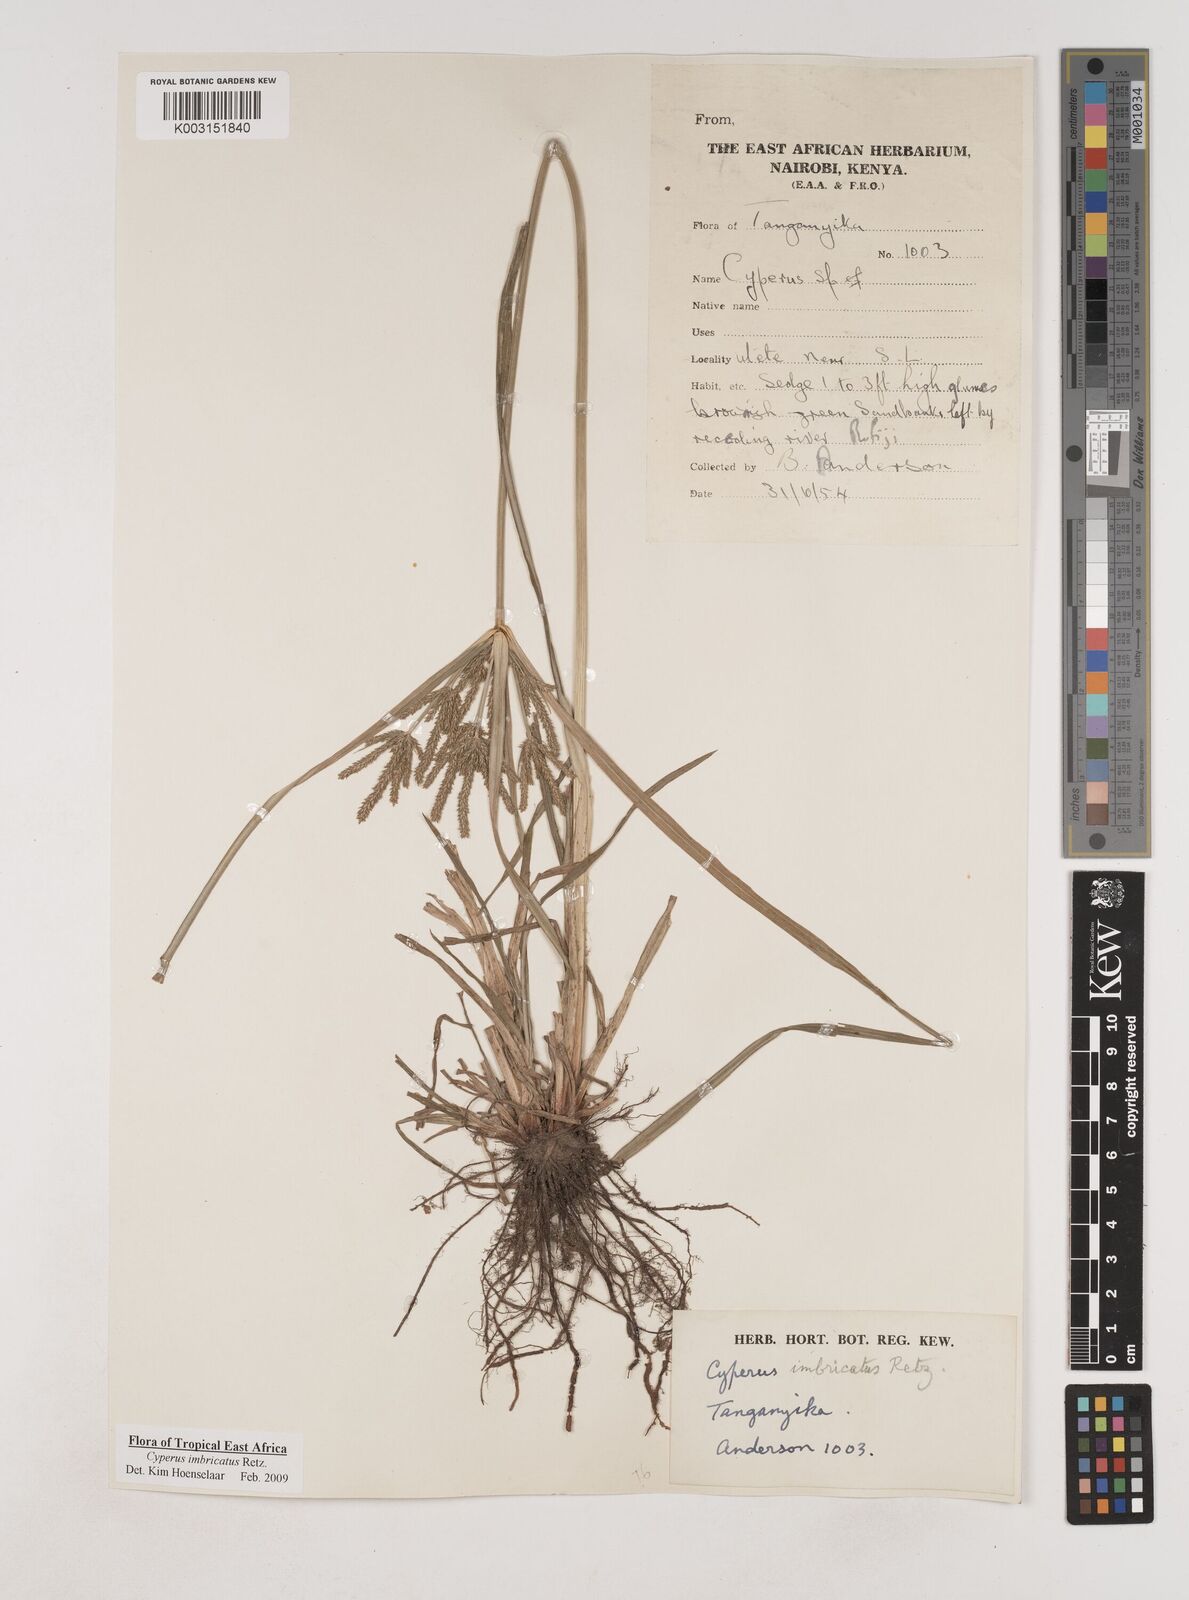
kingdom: Plantae
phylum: Tracheophyta
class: Liliopsida
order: Poales
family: Cyperaceae
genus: Cyperus
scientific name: Cyperus imbricatus
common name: Shingle flatsedge
